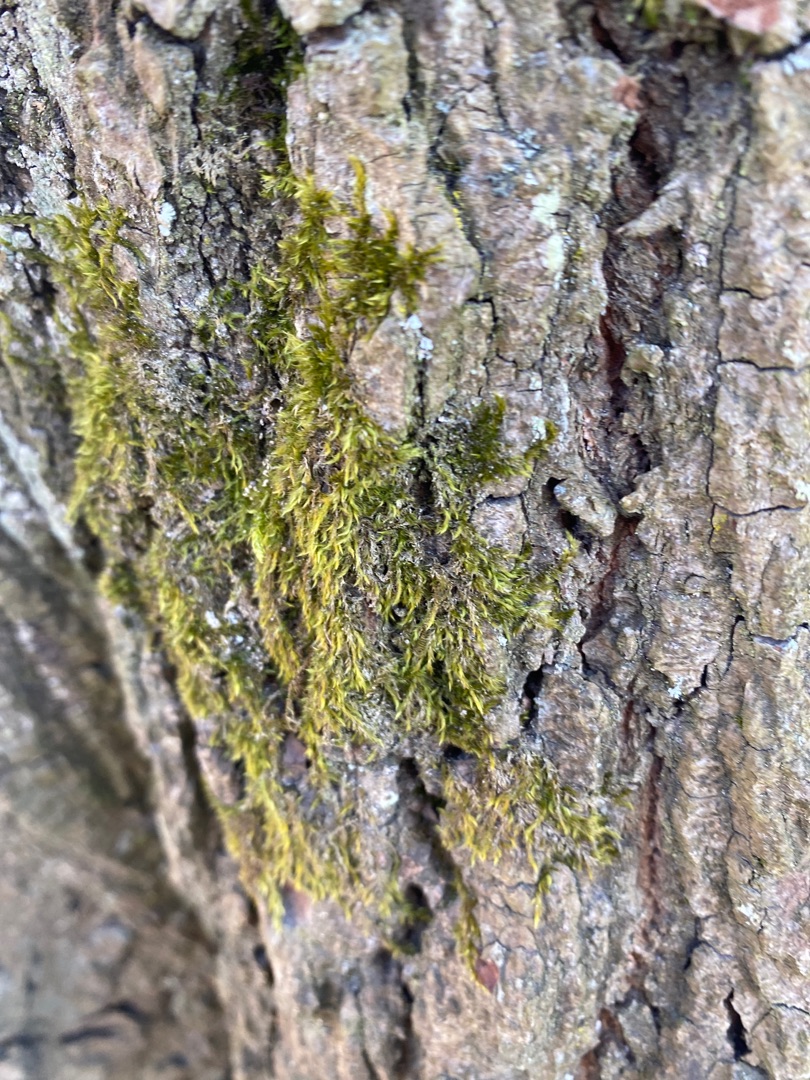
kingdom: Plantae
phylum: Bryophyta
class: Bryopsida
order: Hypnales
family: Hypnaceae
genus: Hypnum
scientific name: Hypnum
